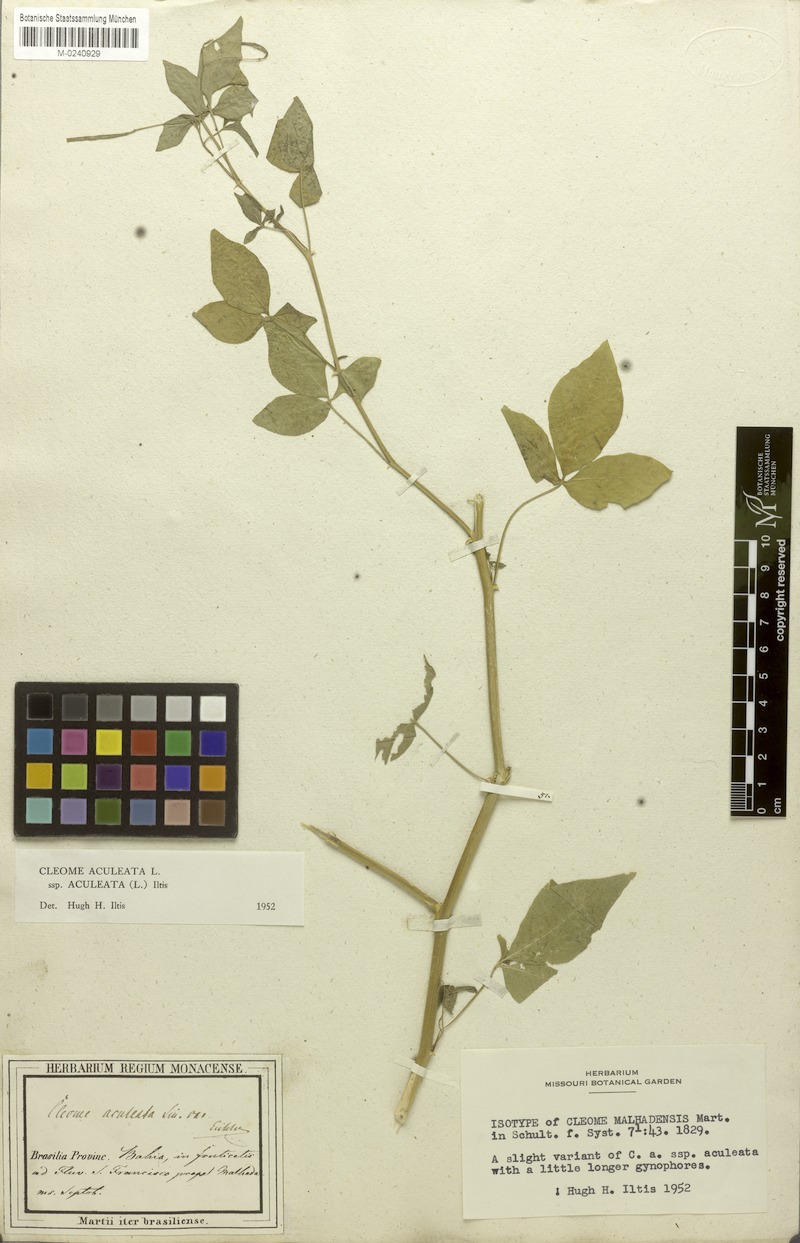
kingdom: Plantae
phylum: Tracheophyta
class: Magnoliopsida
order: Brassicales
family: Cleomaceae
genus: Tarenaya
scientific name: Tarenaya aculeata
